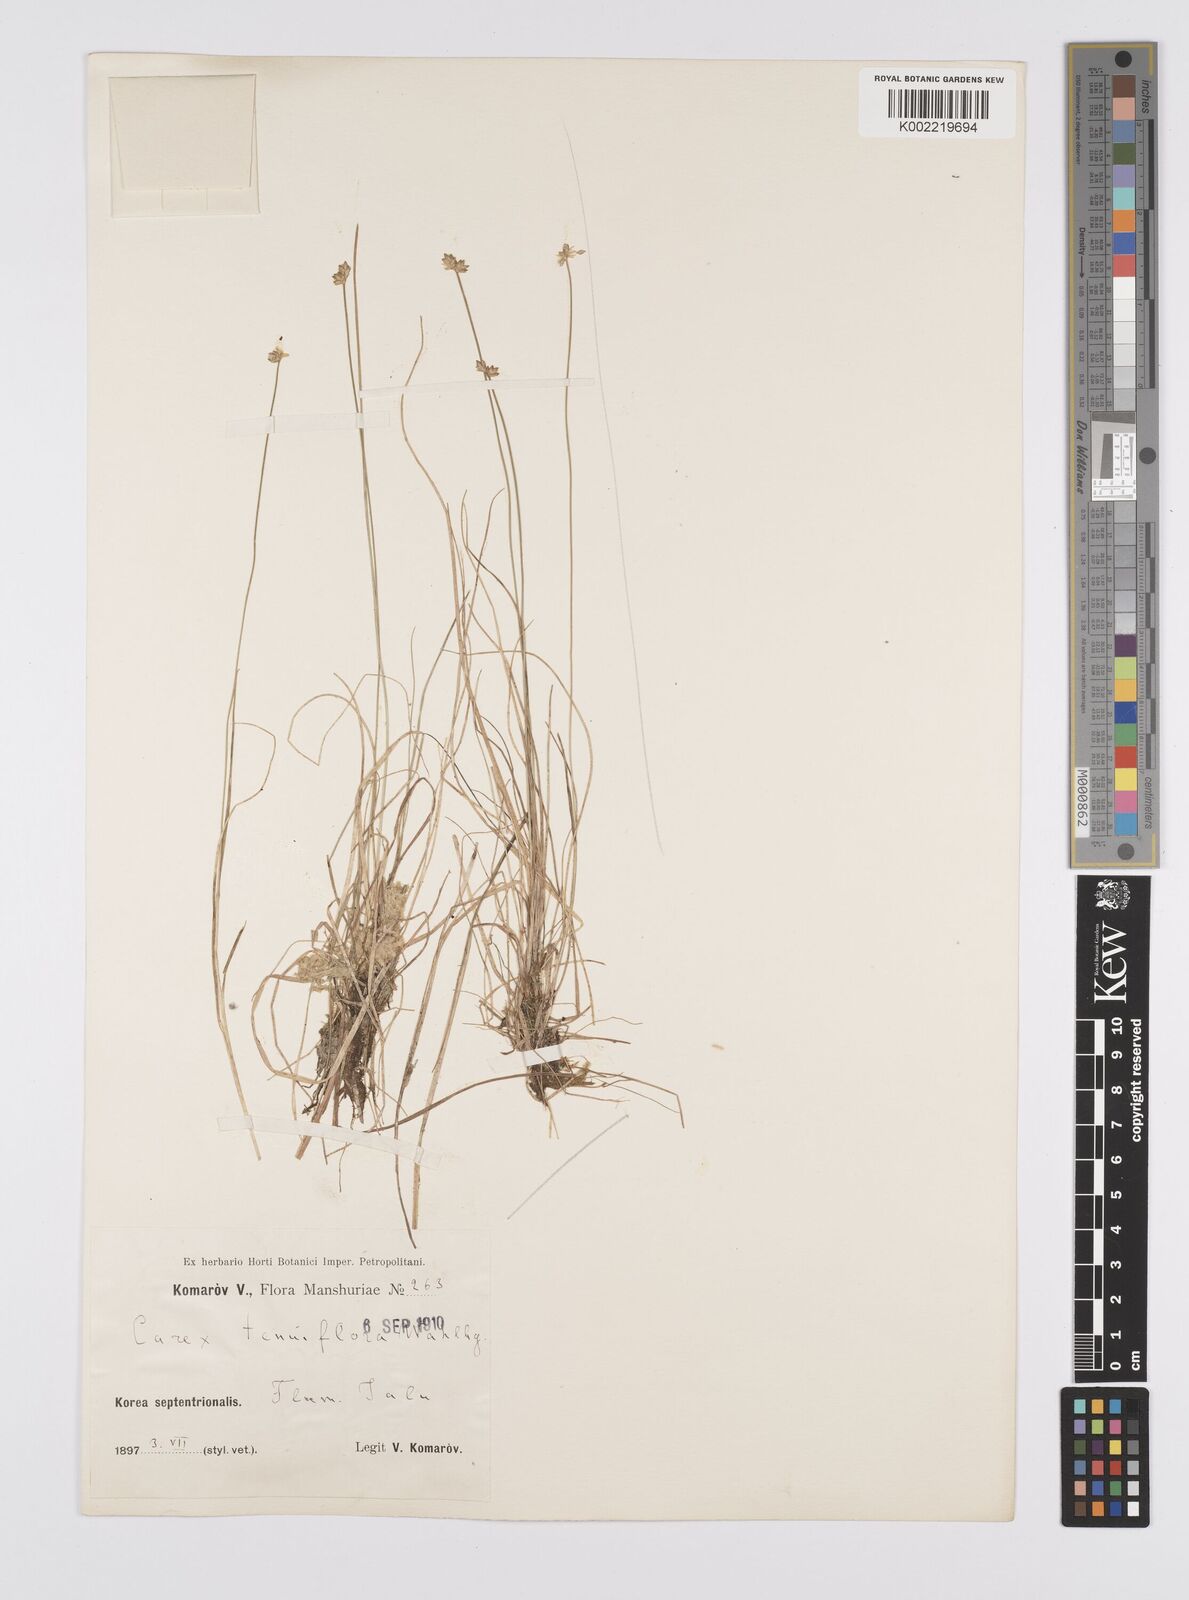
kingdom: Plantae
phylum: Tracheophyta
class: Liliopsida
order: Poales
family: Cyperaceae
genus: Carex
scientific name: Carex tenuiflora
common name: Sparse-flowered sedge
